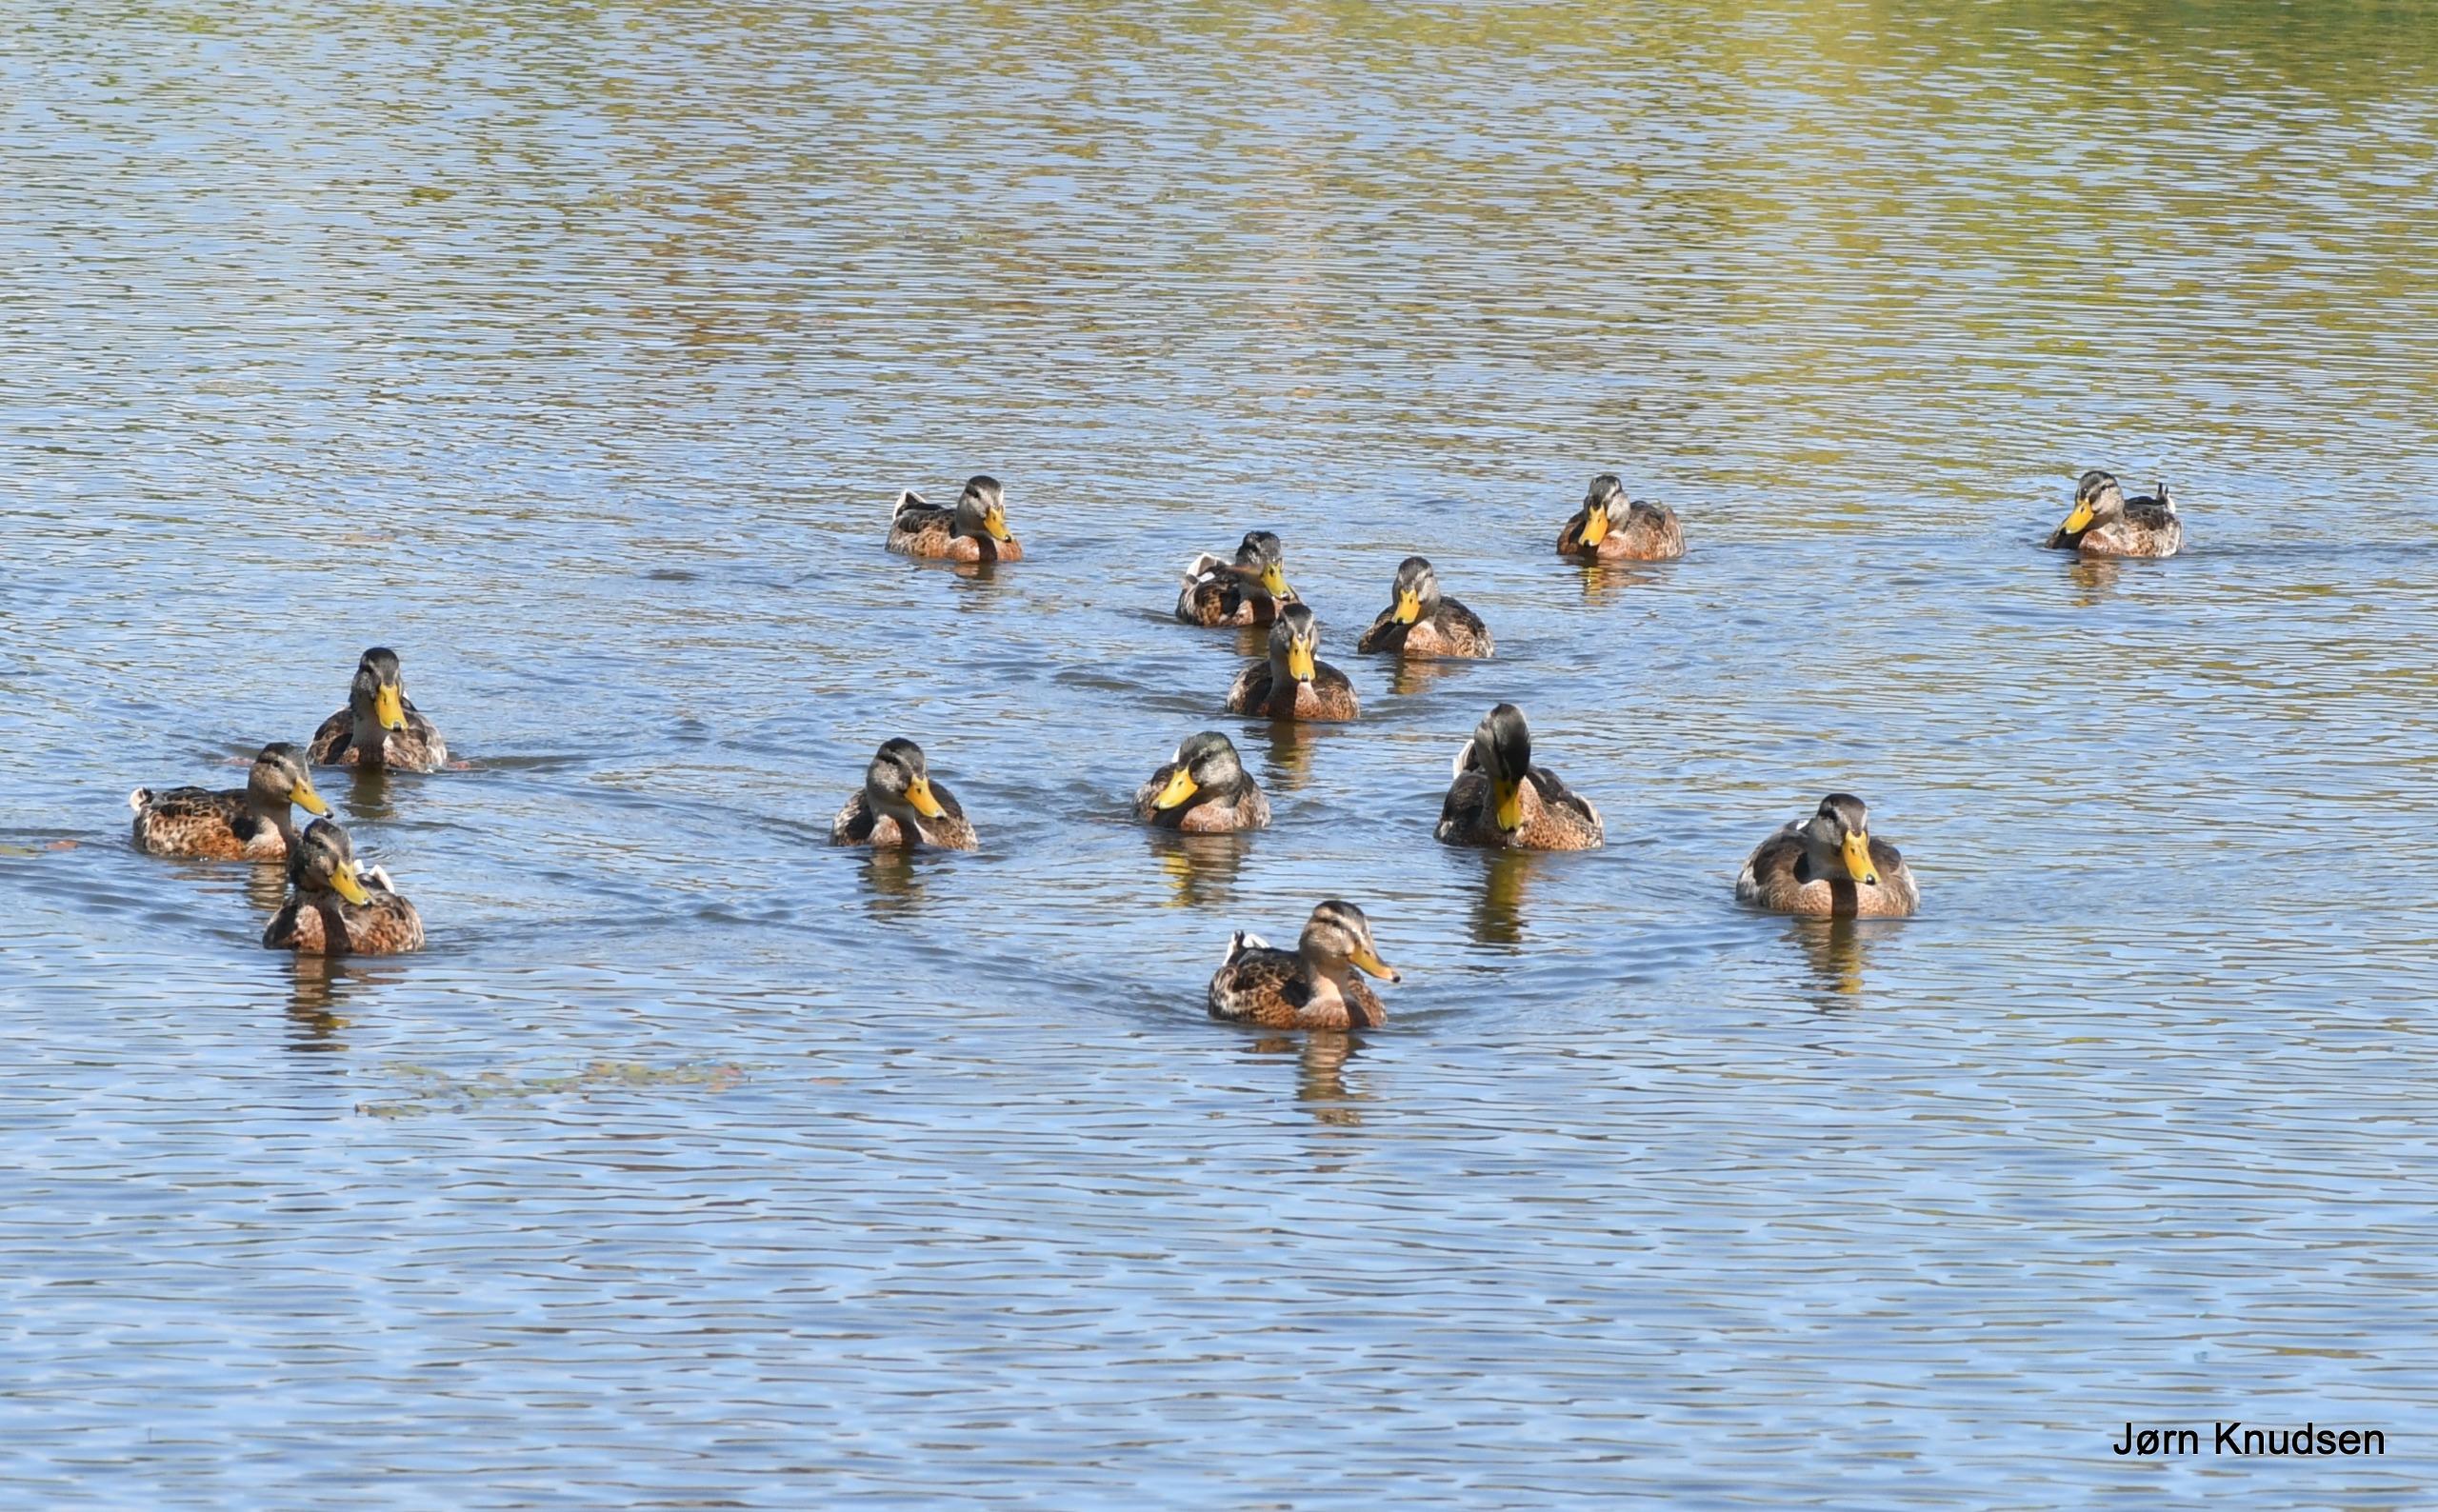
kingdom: Animalia
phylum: Chordata
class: Aves
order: Anseriformes
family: Anatidae
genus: Anas
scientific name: Anas platyrhynchos
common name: Gråand
